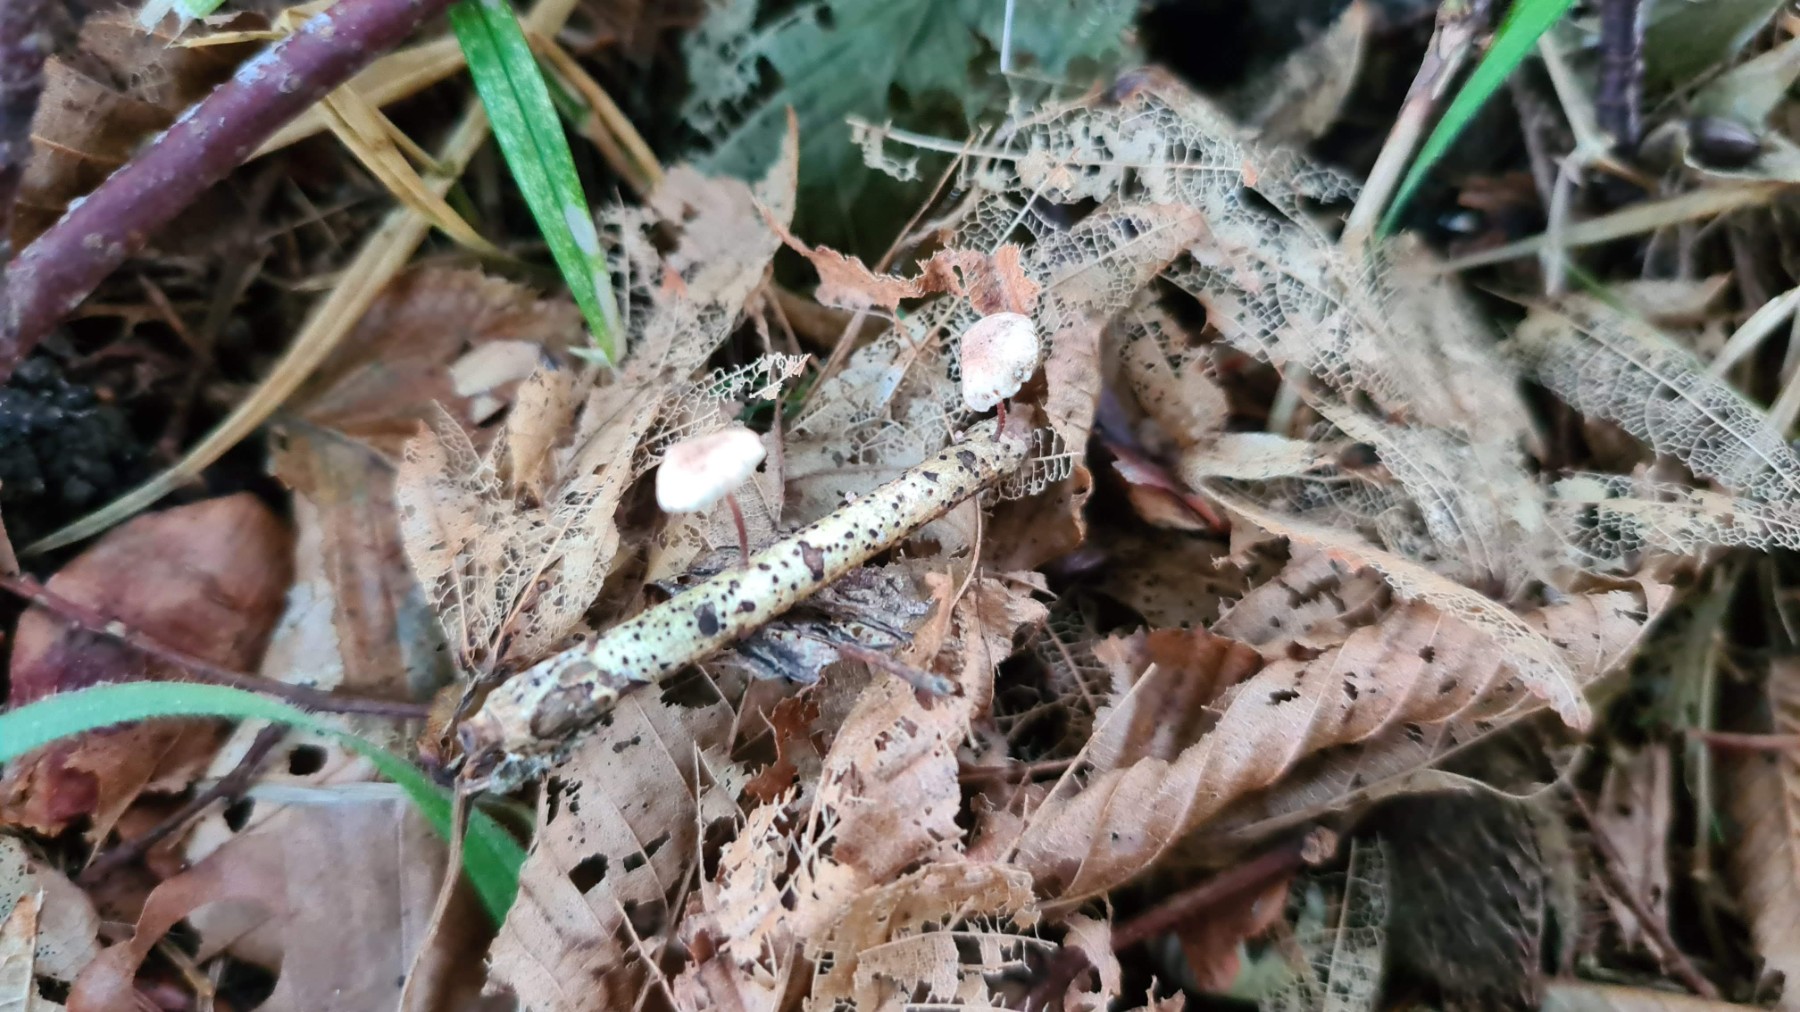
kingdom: Fungi
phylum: Basidiomycota
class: Agaricomycetes
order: Agaricales
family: Omphalotaceae
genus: Collybiopsis
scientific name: Collybiopsis ramealis
